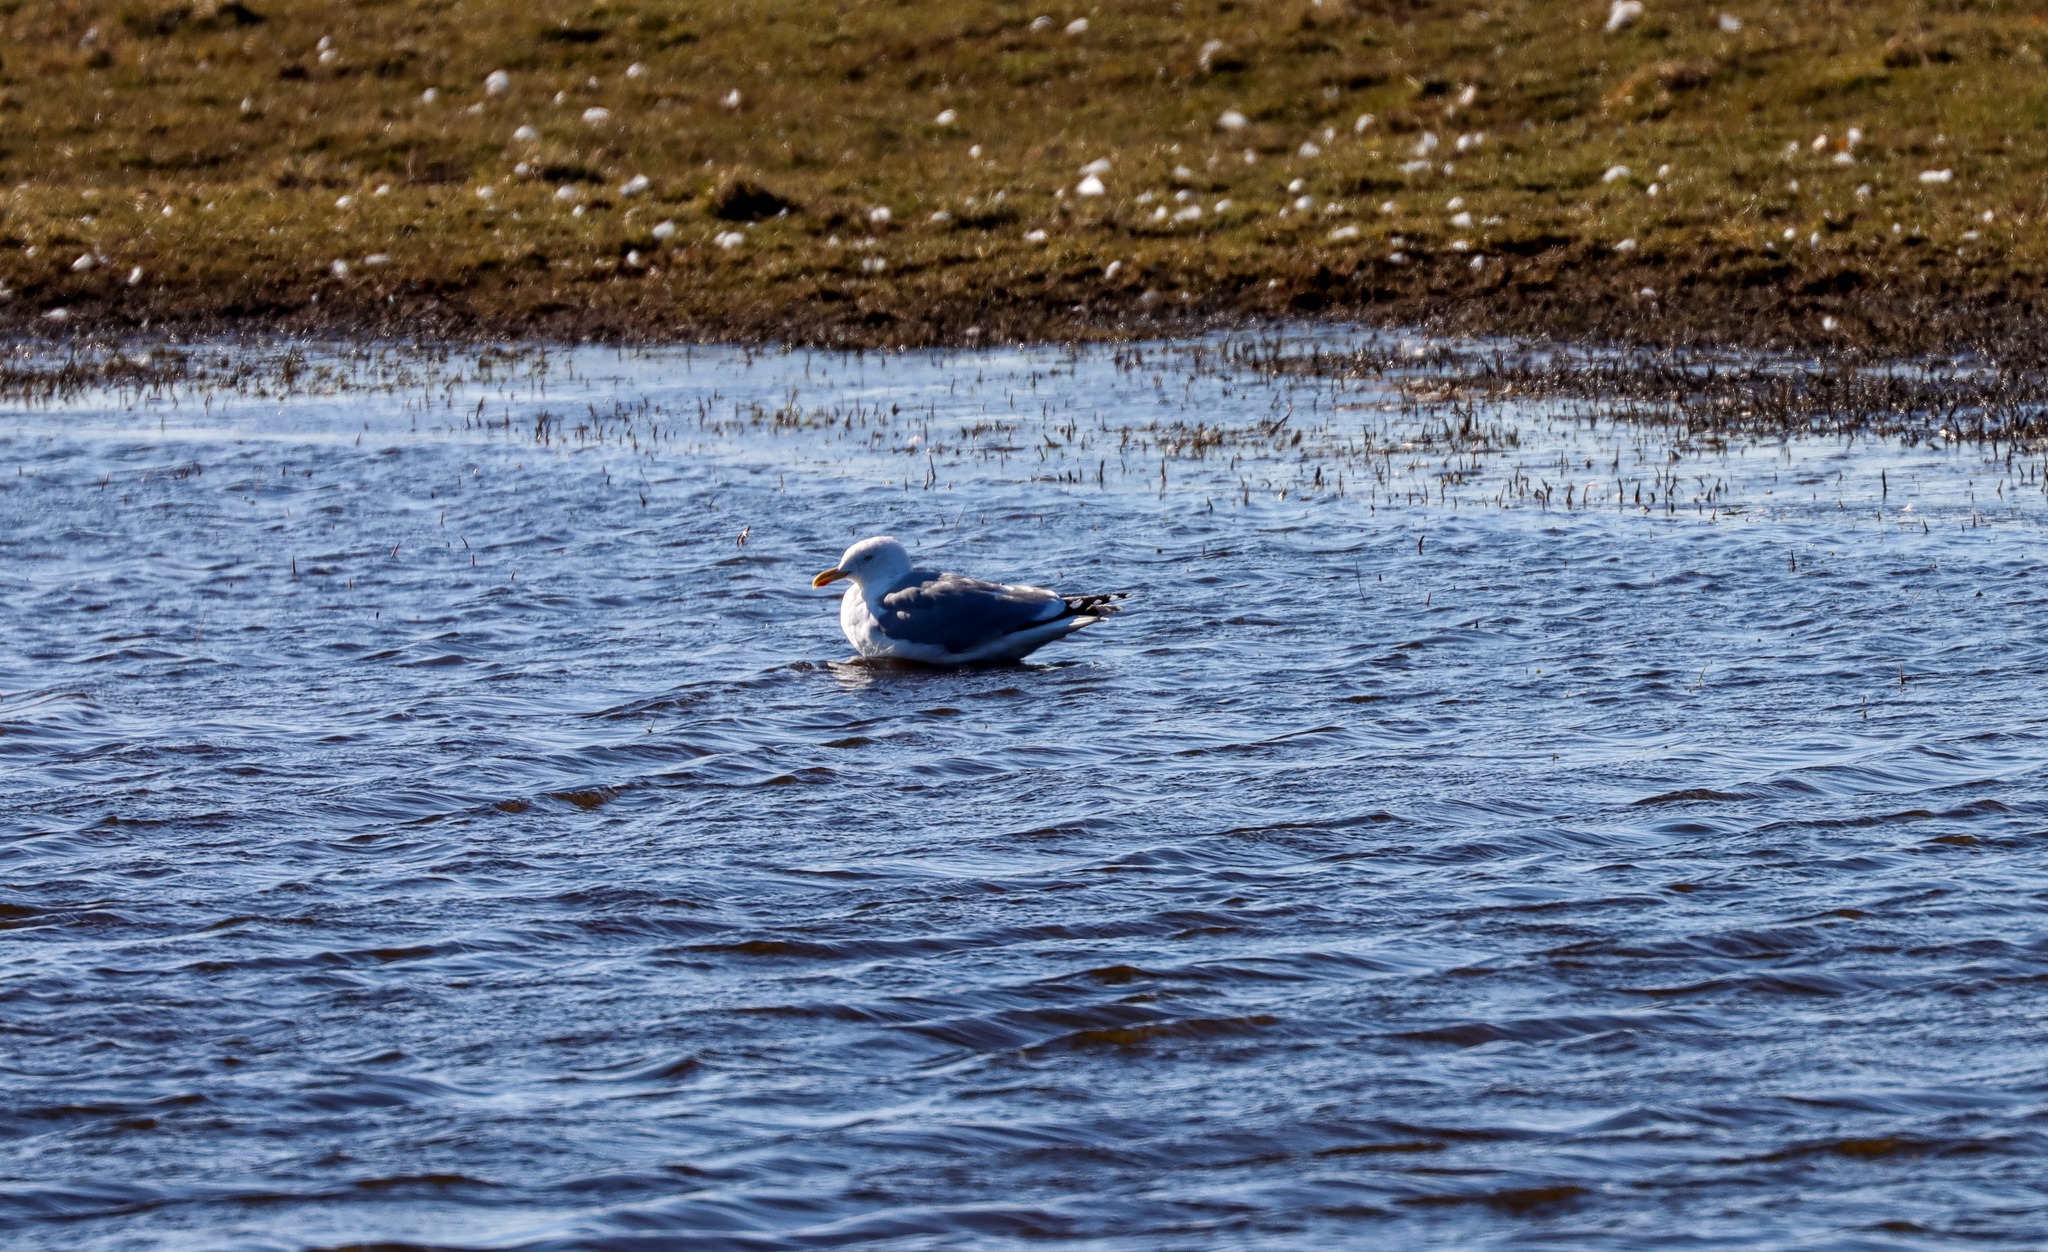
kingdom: Animalia
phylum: Chordata
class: Aves
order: Charadriiformes
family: Laridae
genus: Larus
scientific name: Larus argentatus
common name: Sølvmåge
